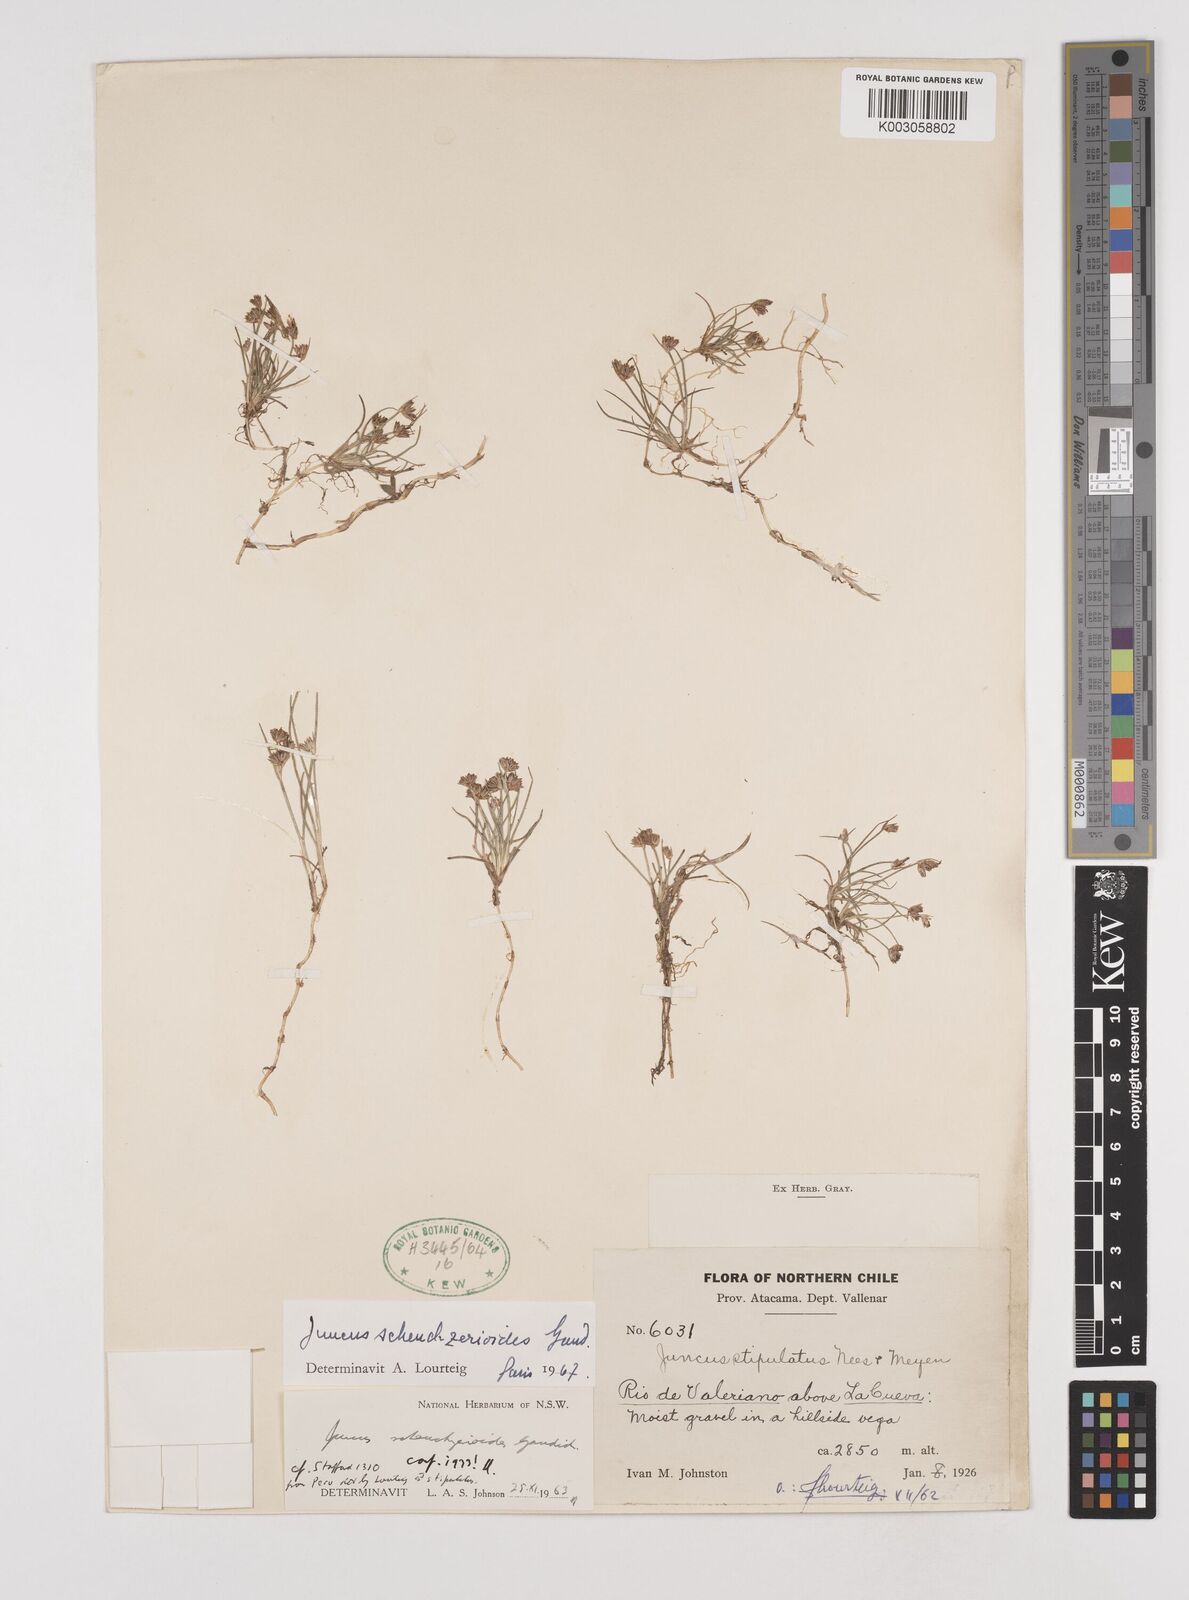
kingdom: Plantae
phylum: Tracheophyta
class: Liliopsida
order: Poales
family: Juncaceae
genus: Juncus
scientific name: Juncus scheuchzerioides
